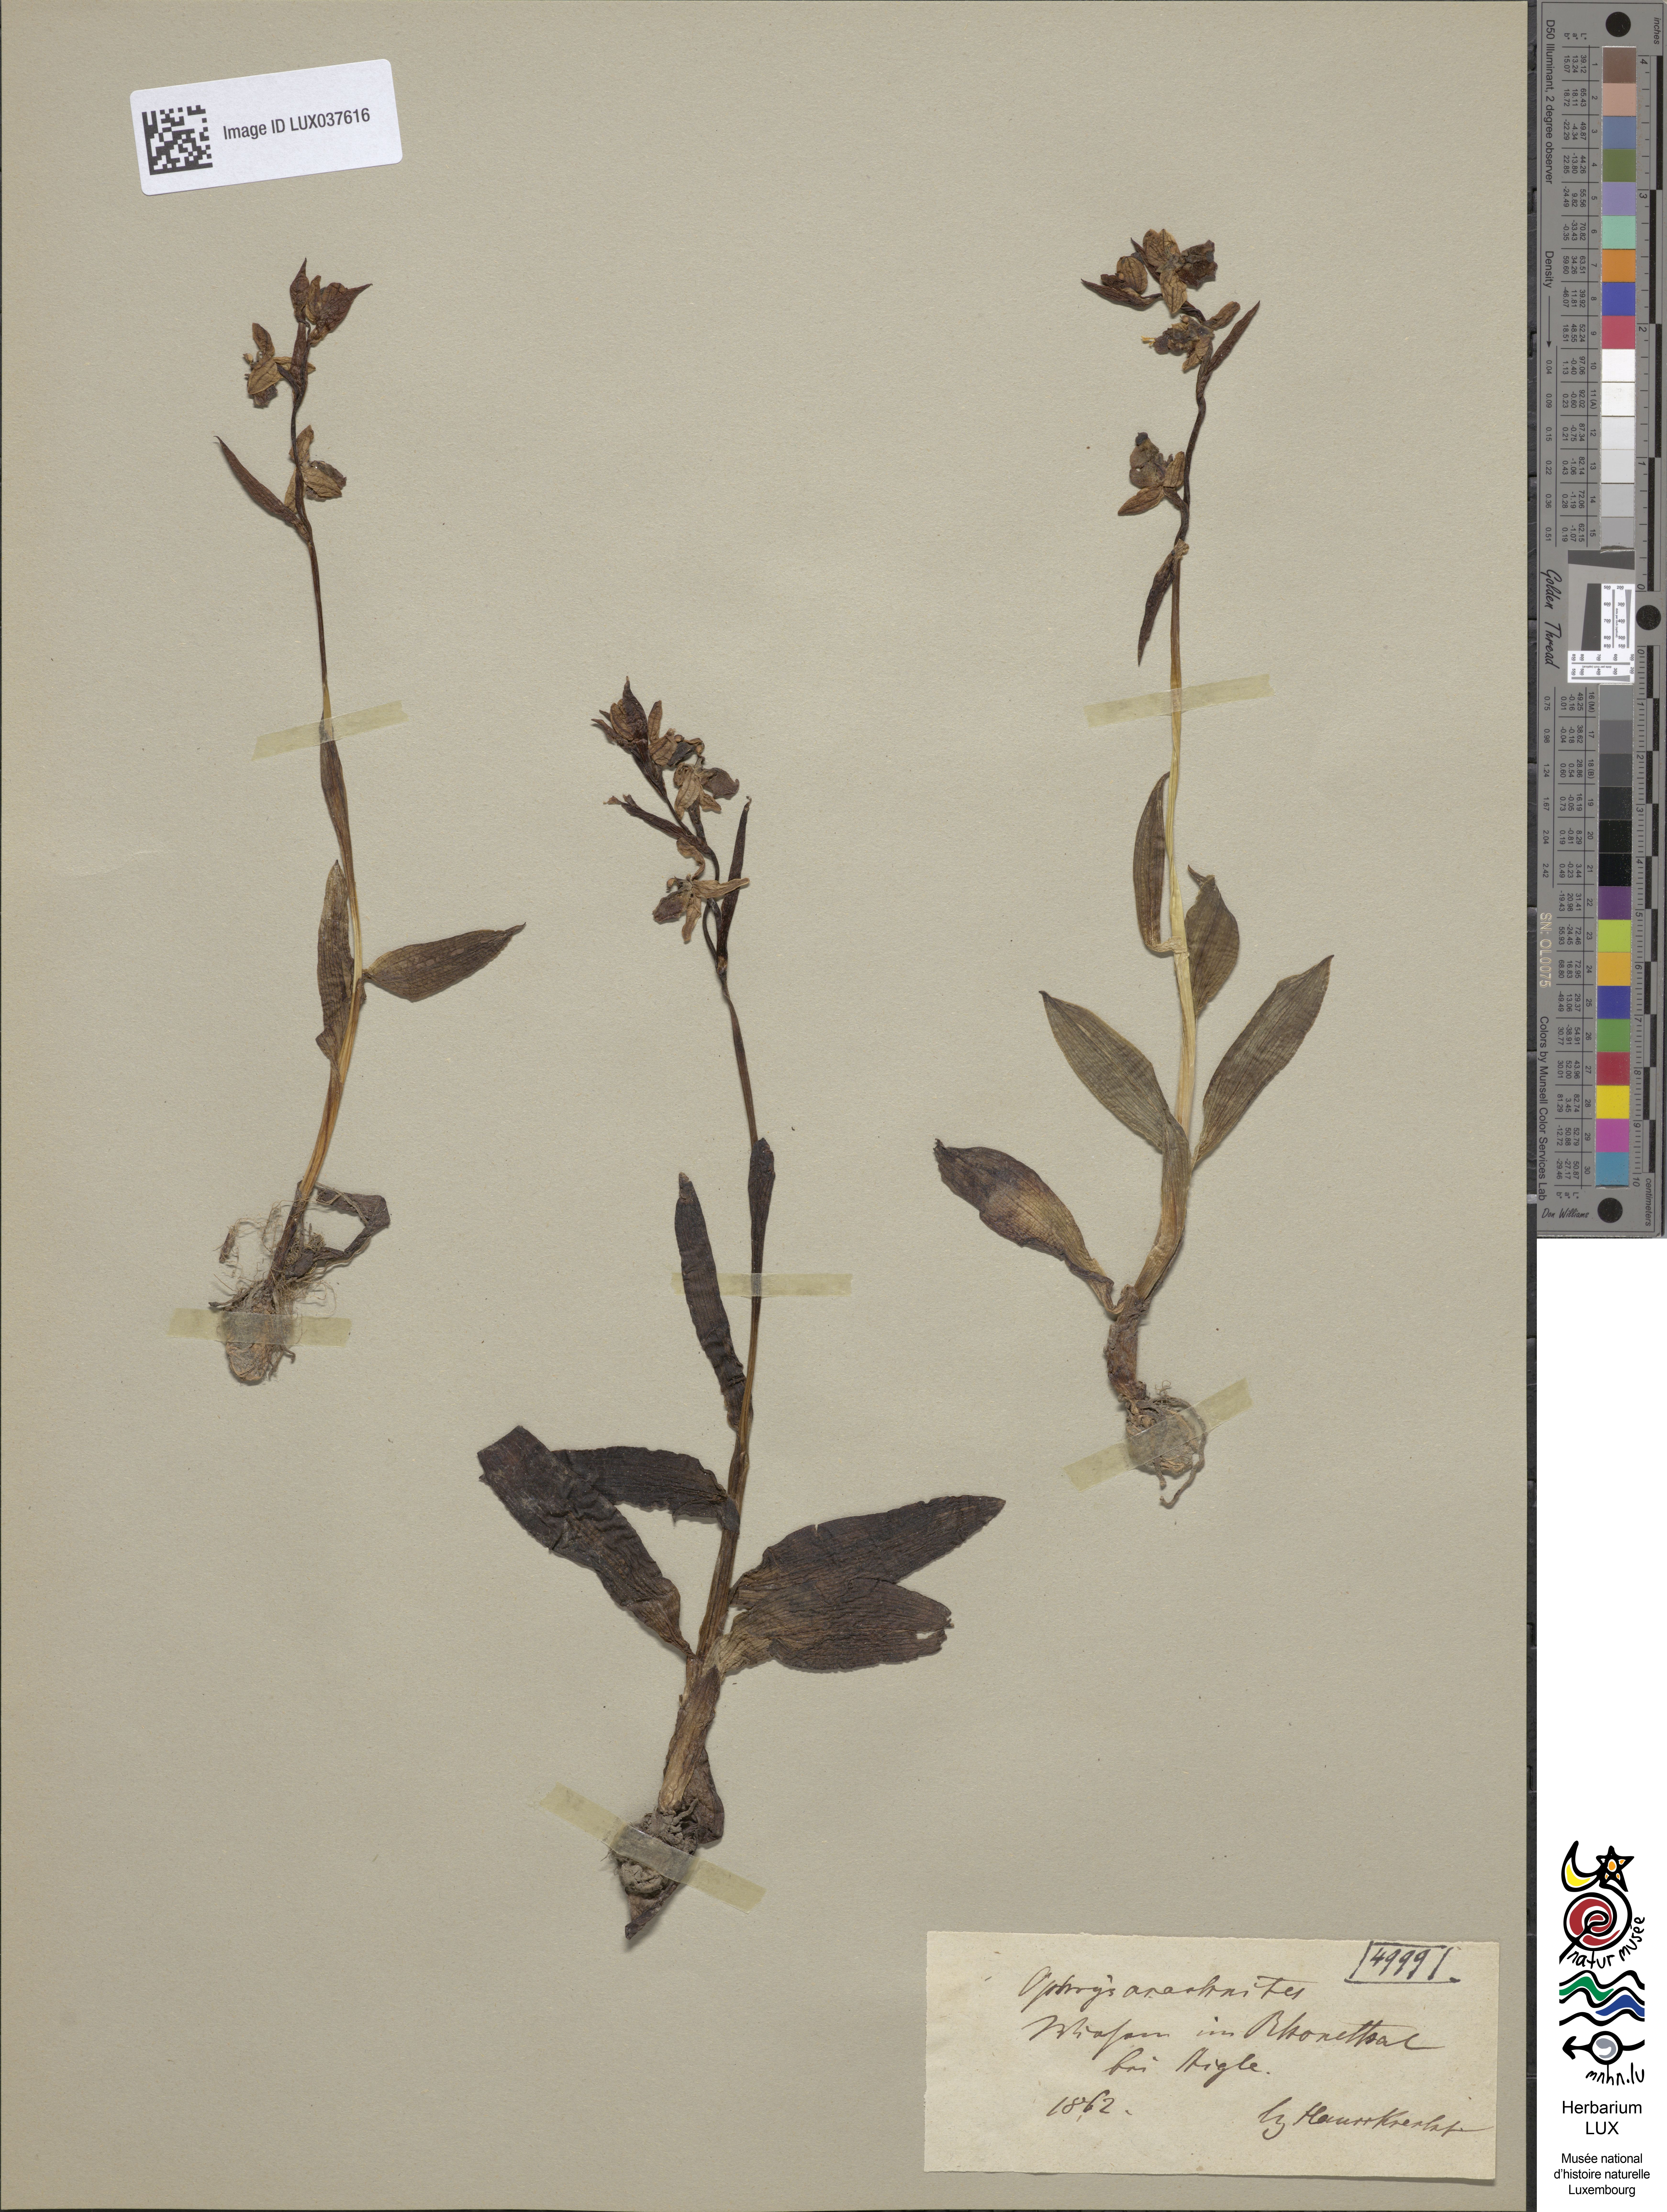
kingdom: Plantae
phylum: Tracheophyta
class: Liliopsida
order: Asparagales
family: Orchidaceae
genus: Ophrys
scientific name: Ophrys holosericea
